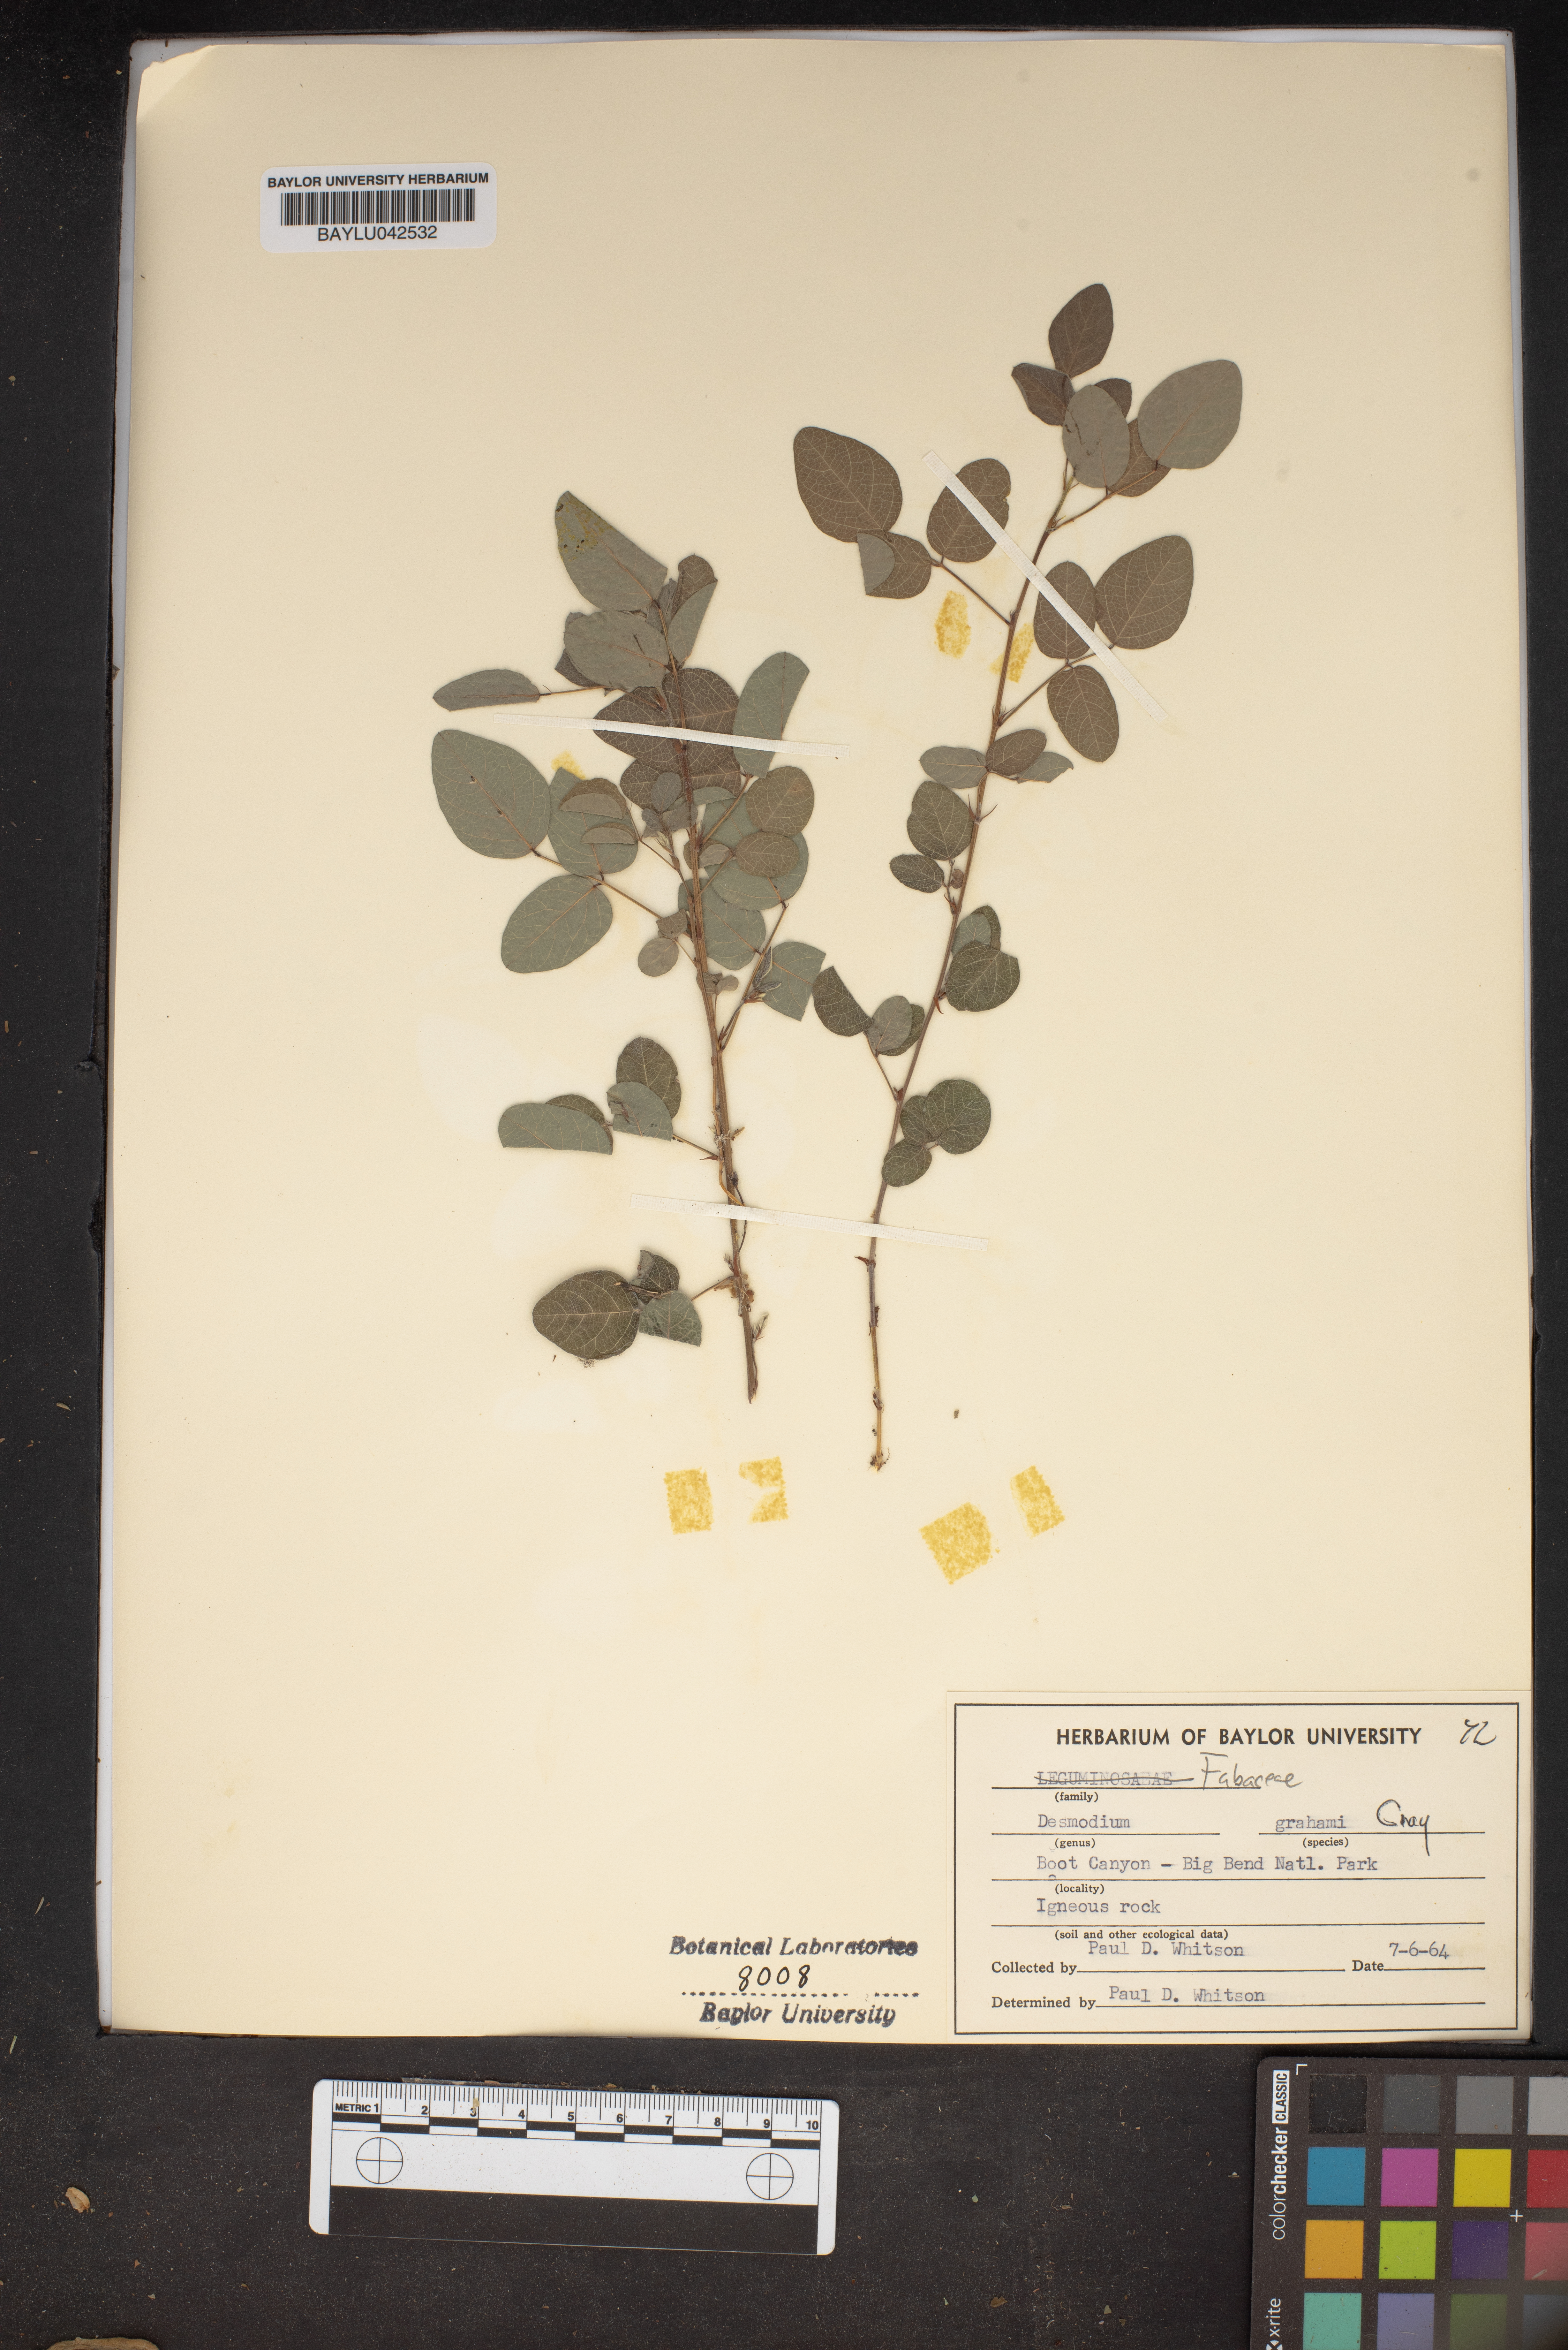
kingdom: Plantae
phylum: Tracheophyta
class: Magnoliopsida
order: Fabales
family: Fabaceae
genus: Desmodium
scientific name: Desmodium grahamii
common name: Graham's tick-trefoil
